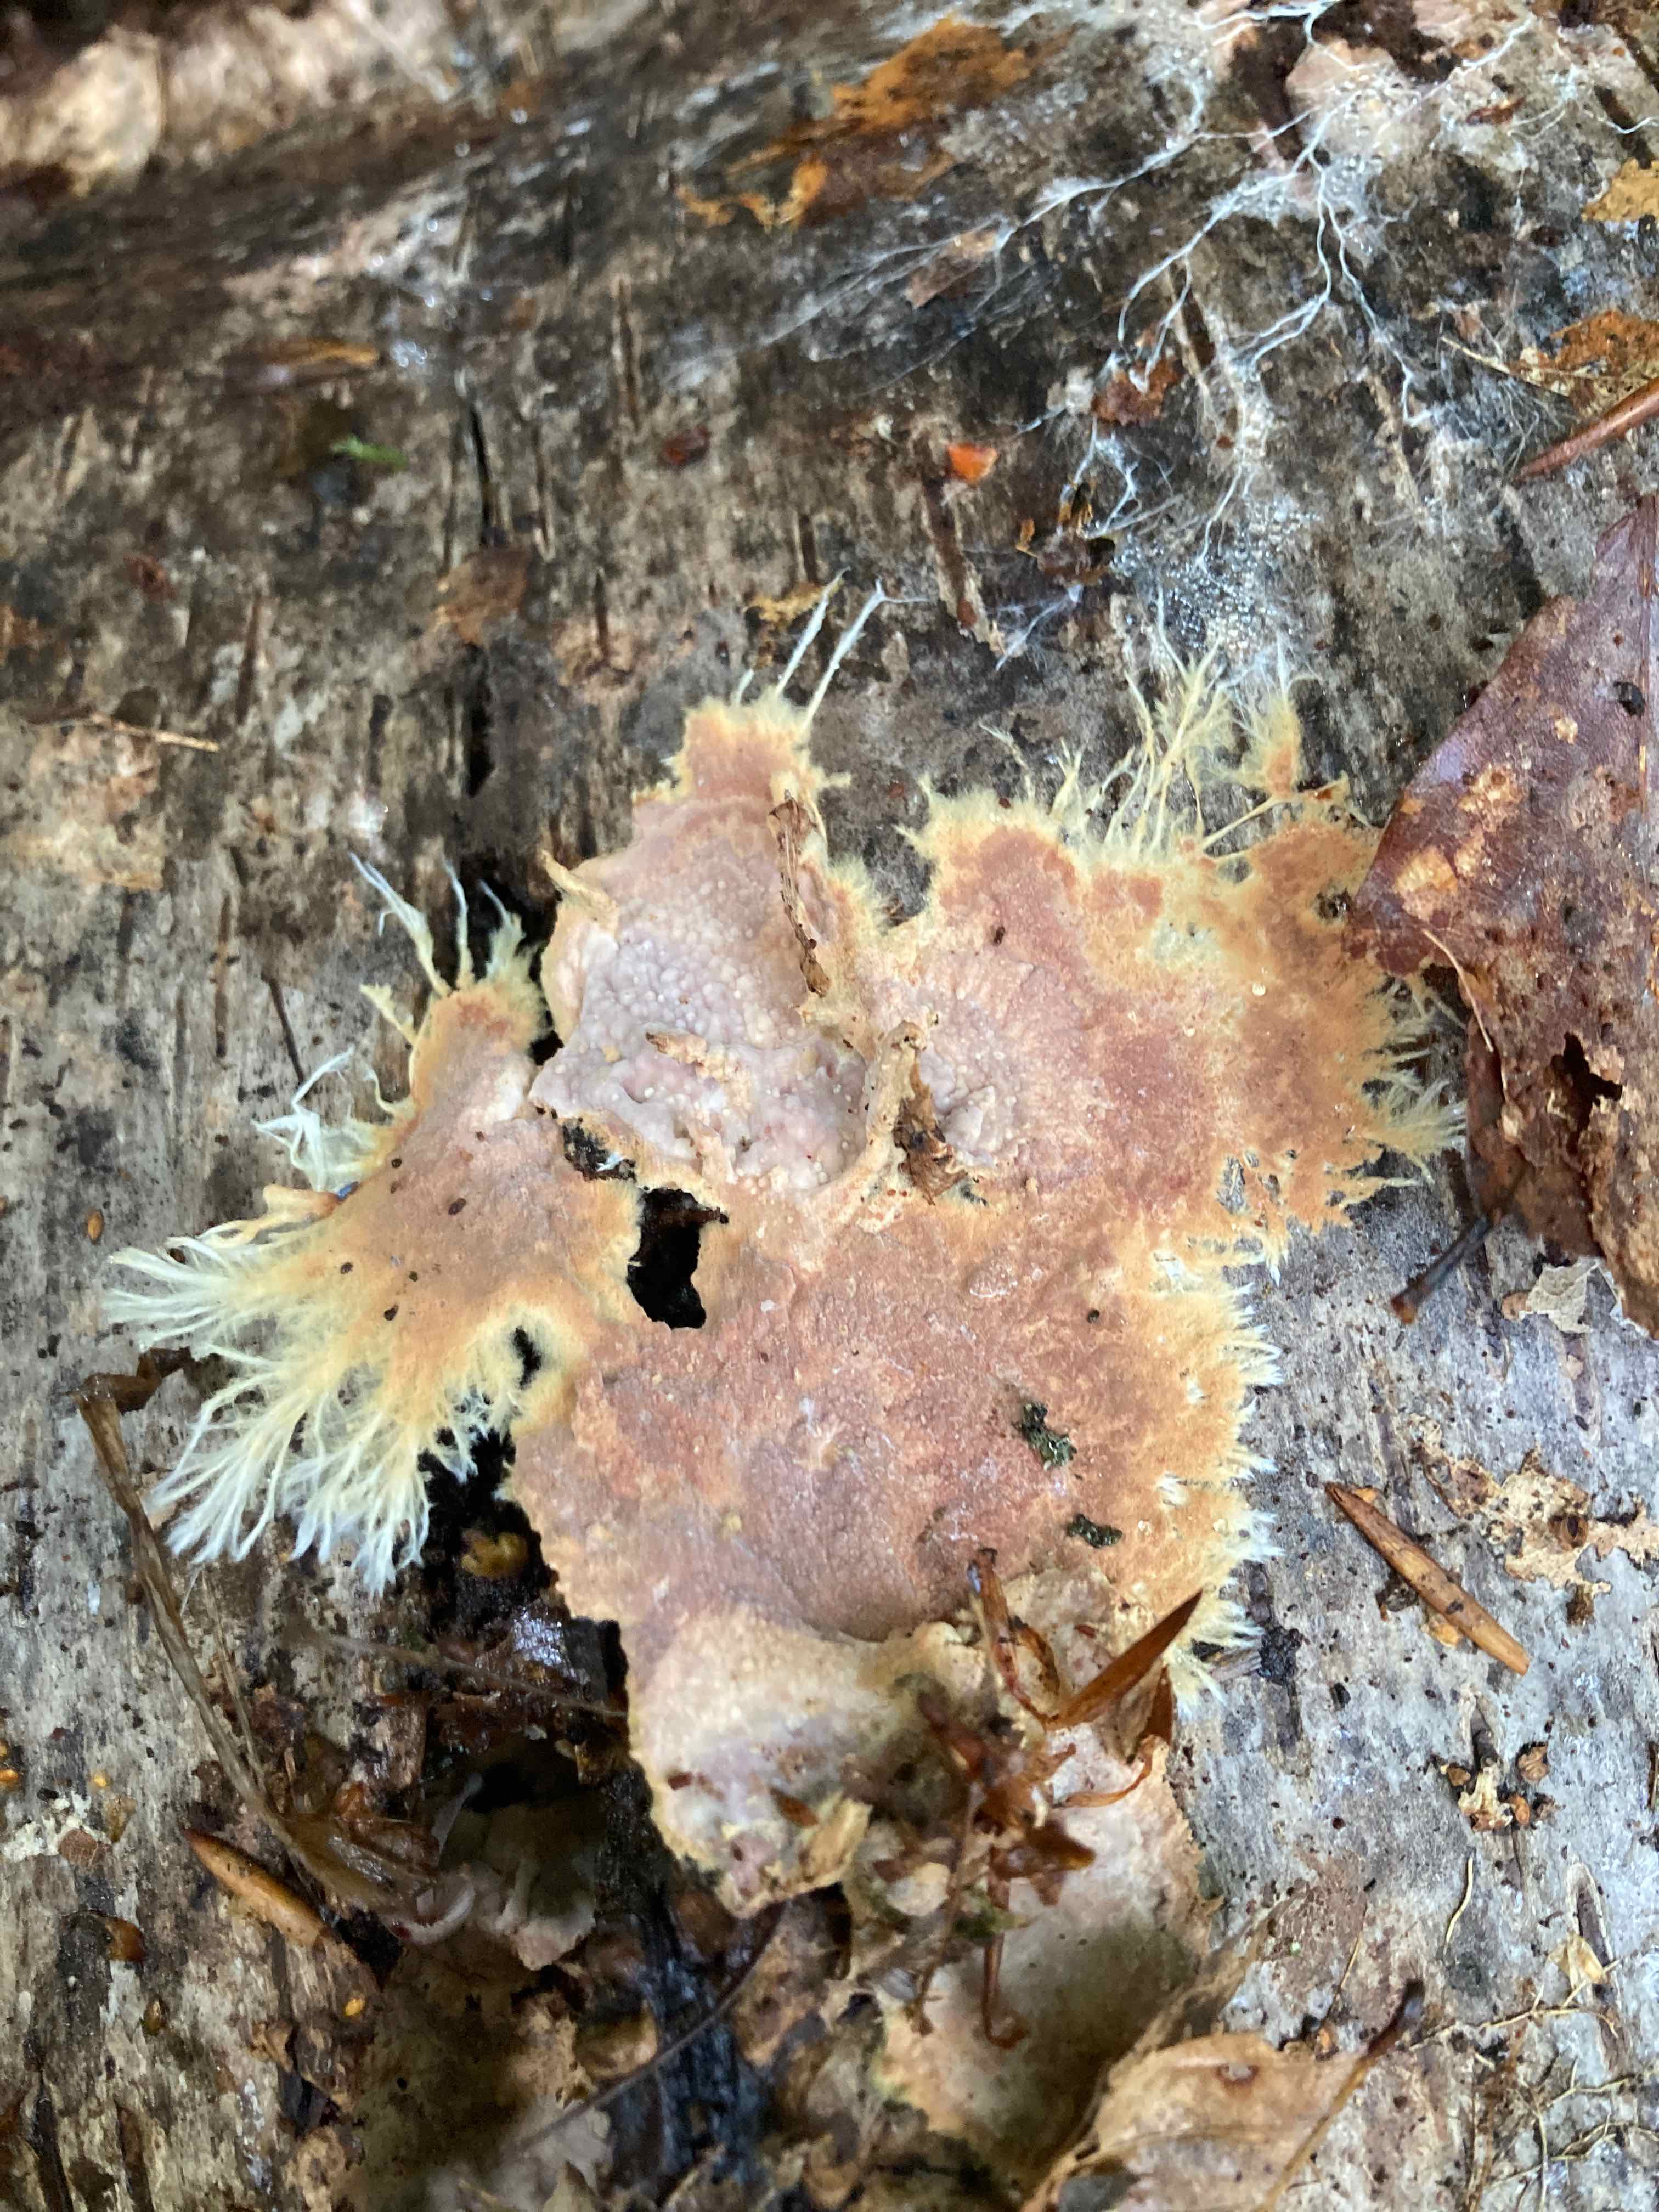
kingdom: Fungi
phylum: Basidiomycota
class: Agaricomycetes
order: Polyporales
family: Phanerochaetaceae
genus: Rhizochaete
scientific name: Rhizochaete radicata
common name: orangebrun randtråd
